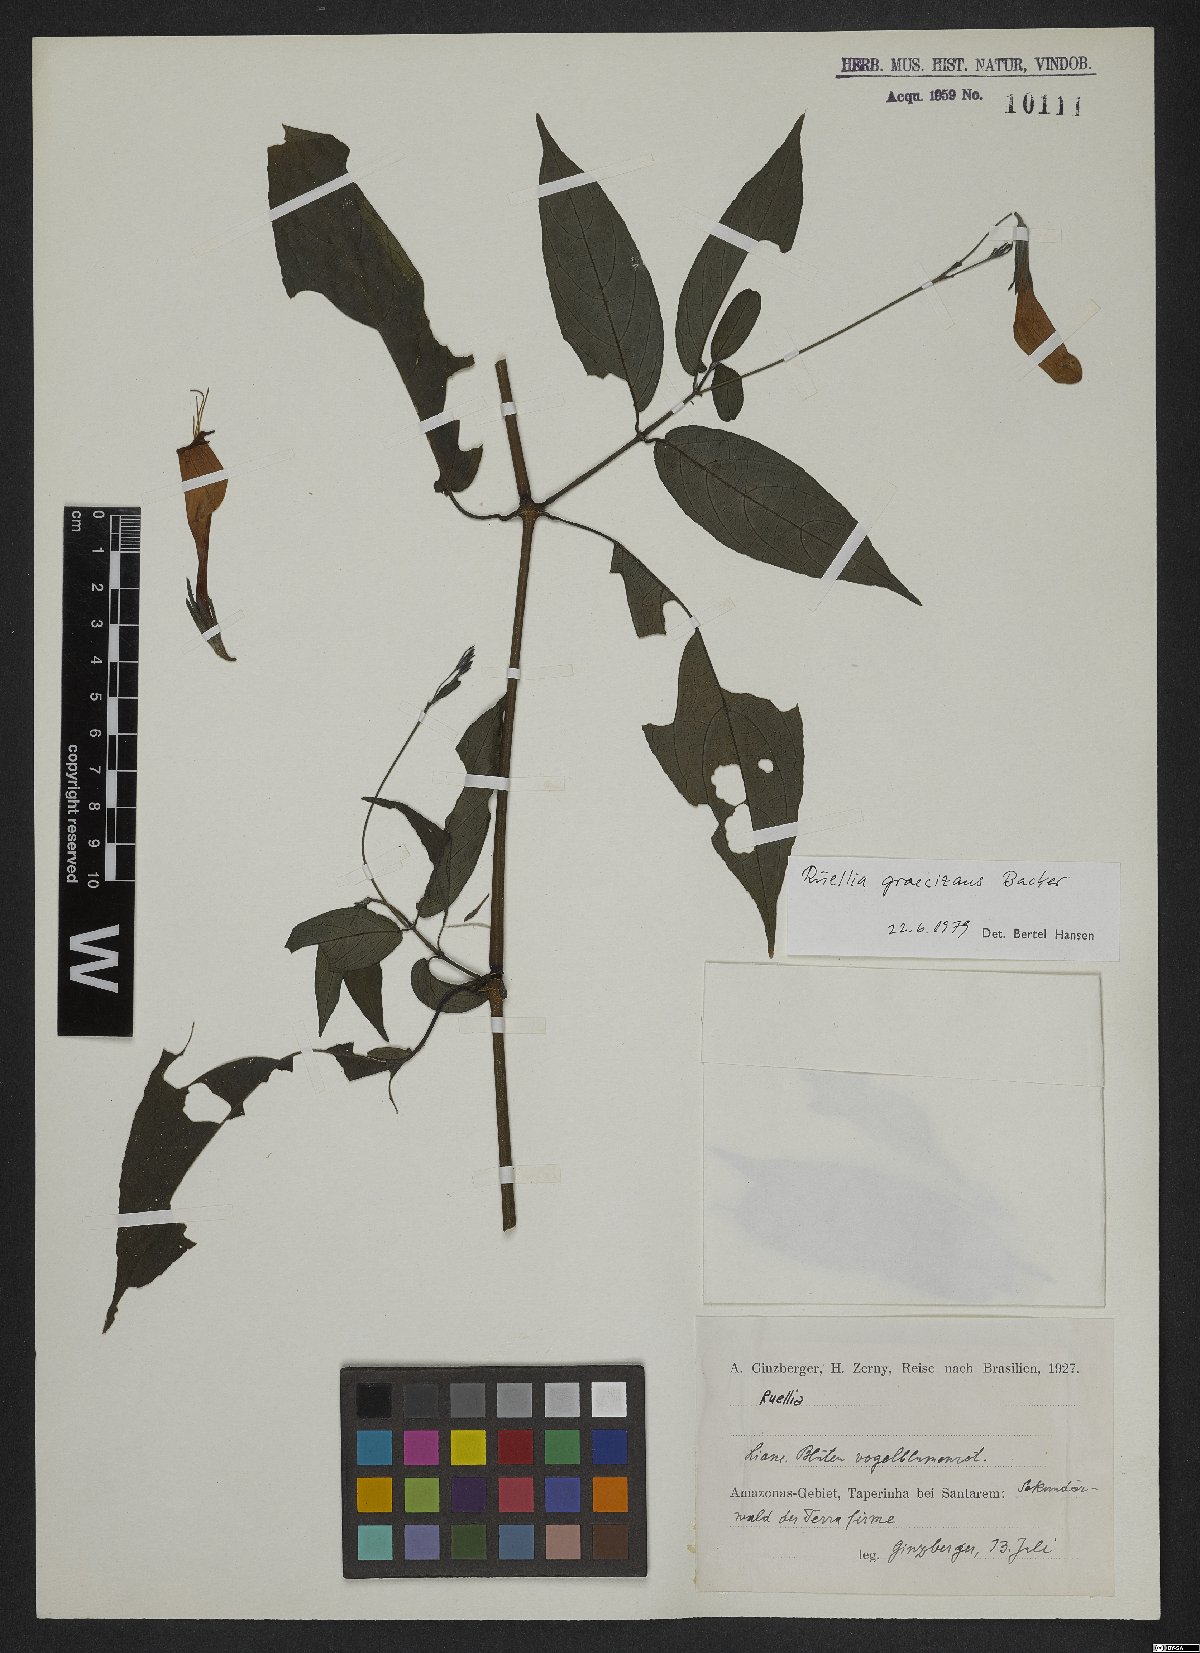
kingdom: Plantae
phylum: Tracheophyta
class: Magnoliopsida
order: Lamiales
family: Acanthaceae
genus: Ruellia
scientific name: Ruellia brevifolia
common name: Tropical wild petunia
